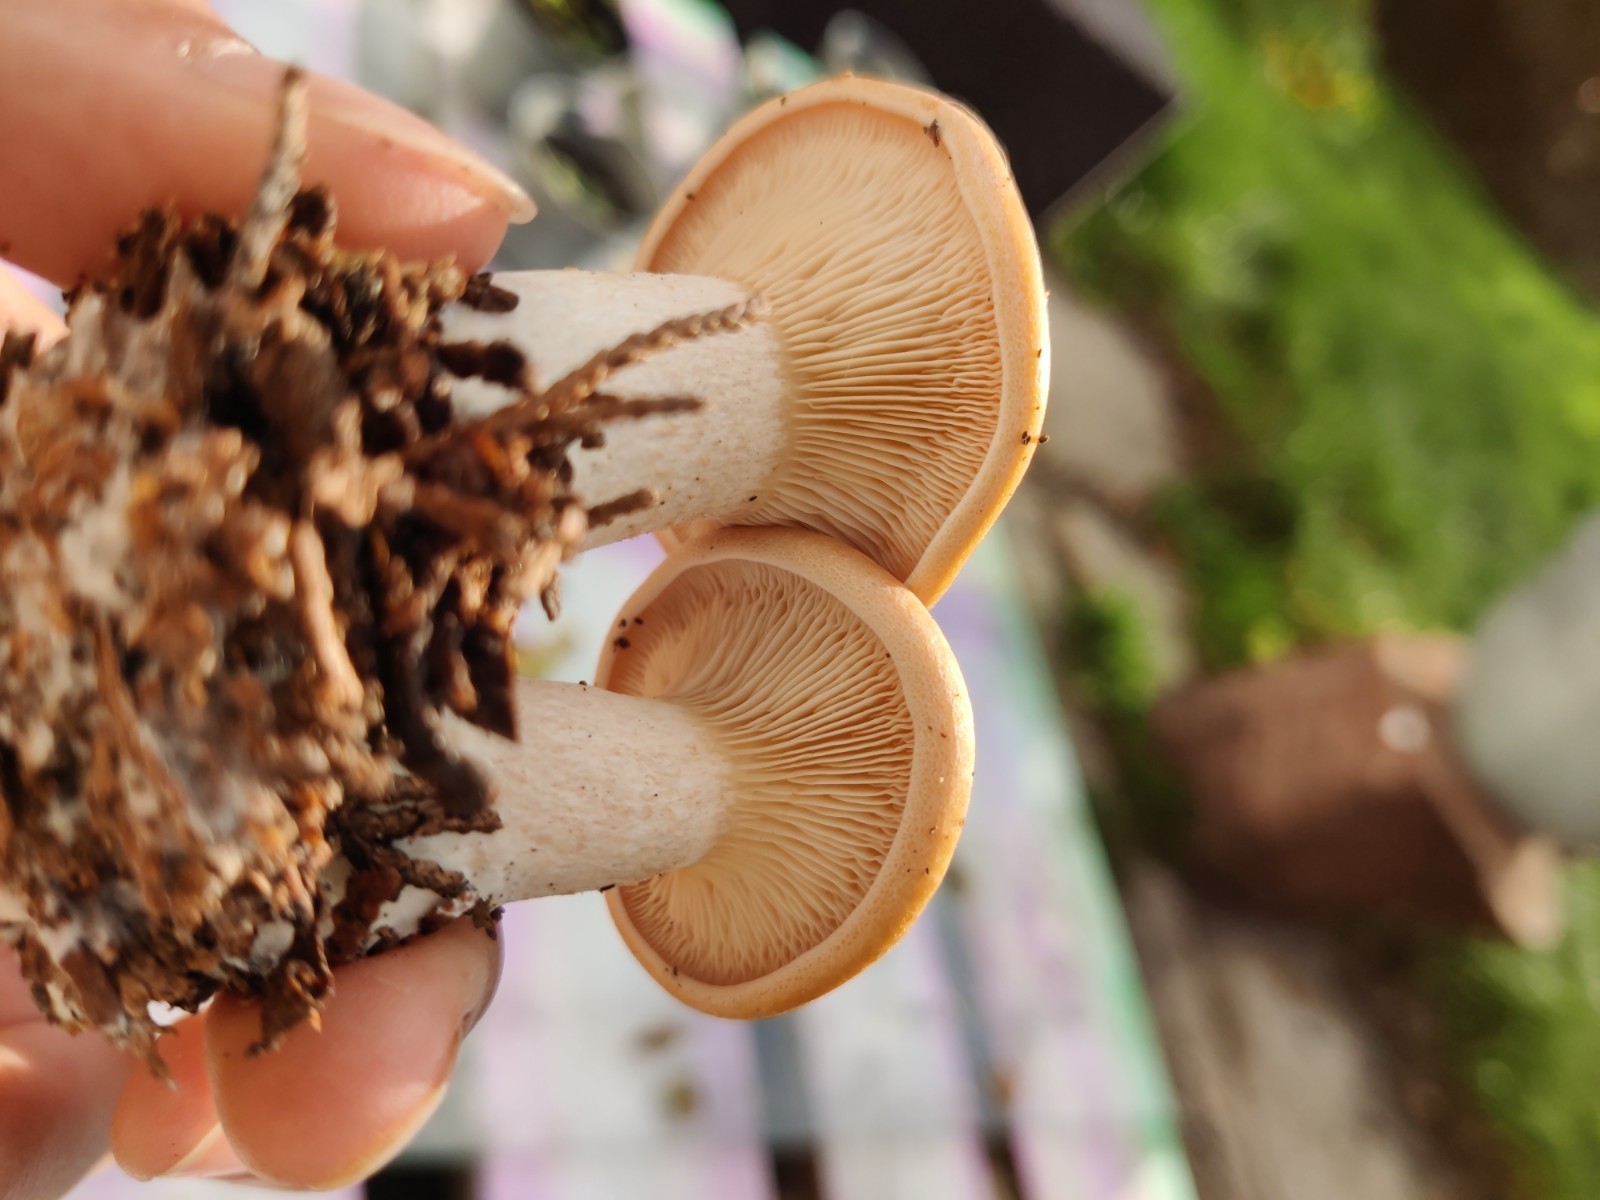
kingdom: Fungi
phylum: Basidiomycota
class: Agaricomycetes
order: Agaricales
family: Tricholomataceae
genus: Paralepista
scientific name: Paralepista flaccida
